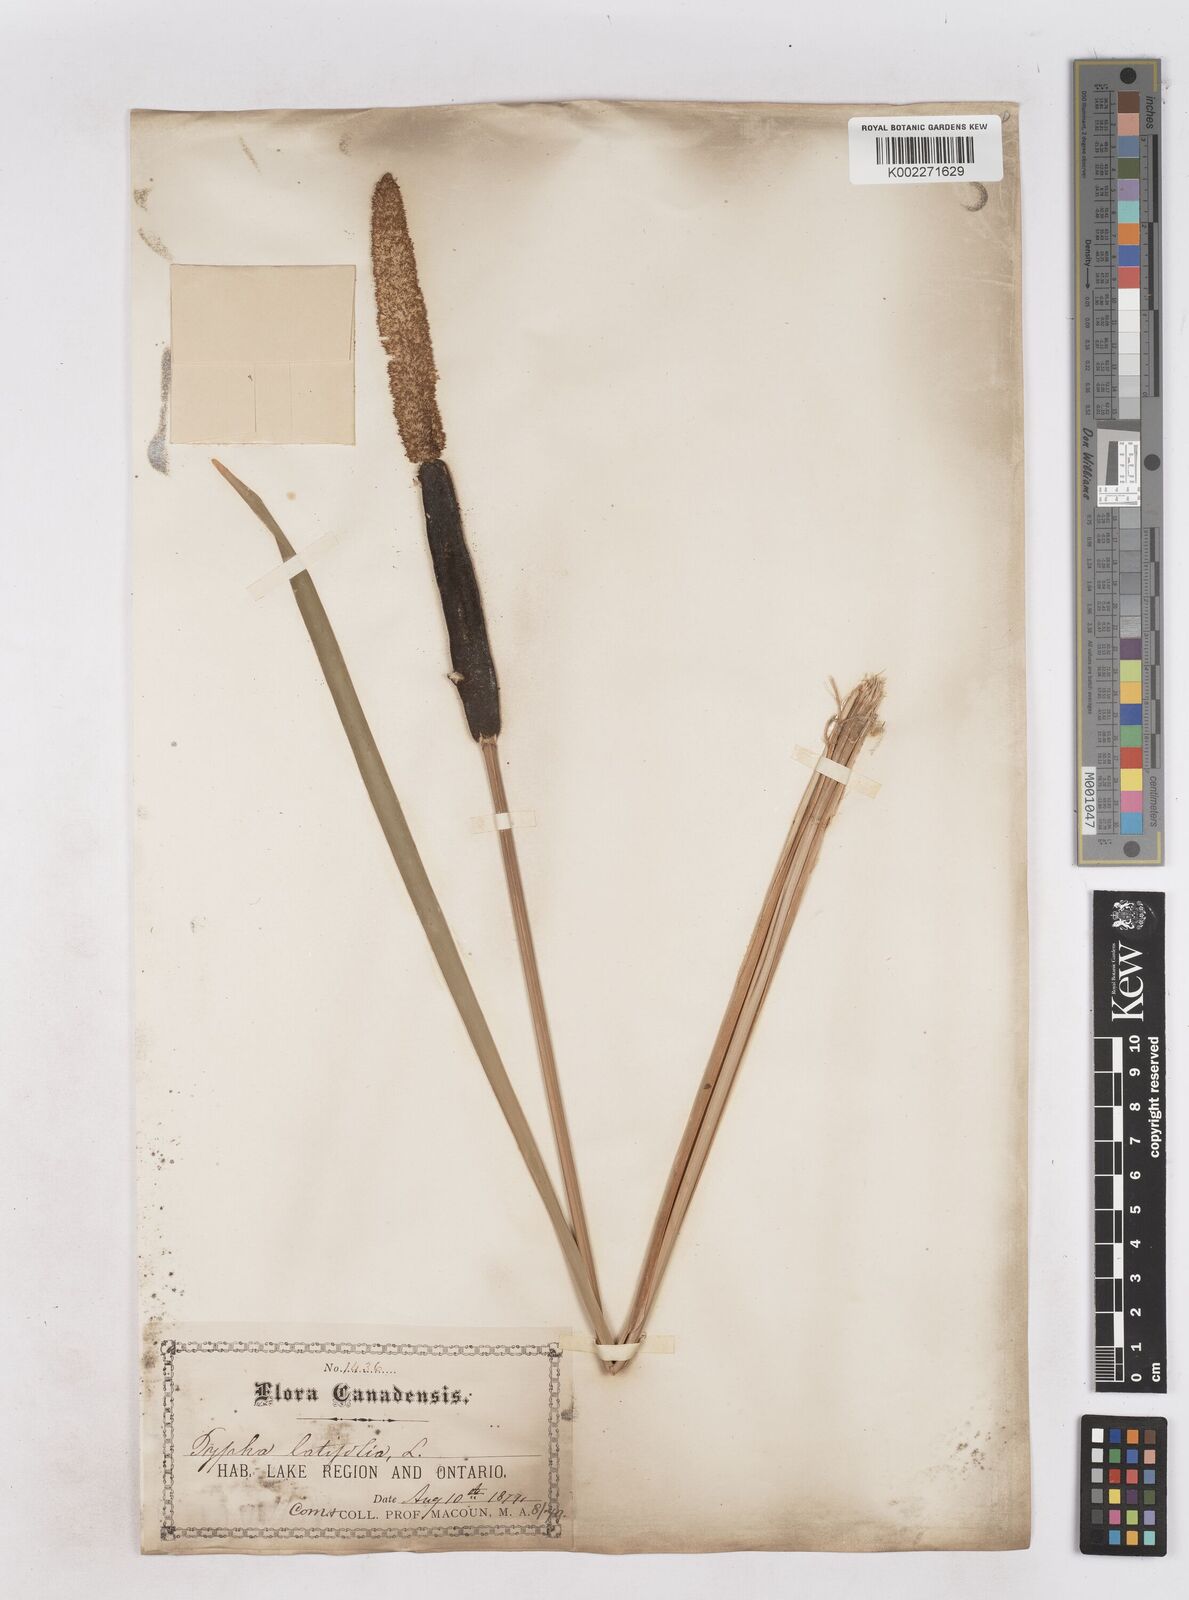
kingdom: Plantae
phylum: Tracheophyta
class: Liliopsida
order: Poales
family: Typhaceae
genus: Typha
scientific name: Typha latifolia
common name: Broadleaf cattail
